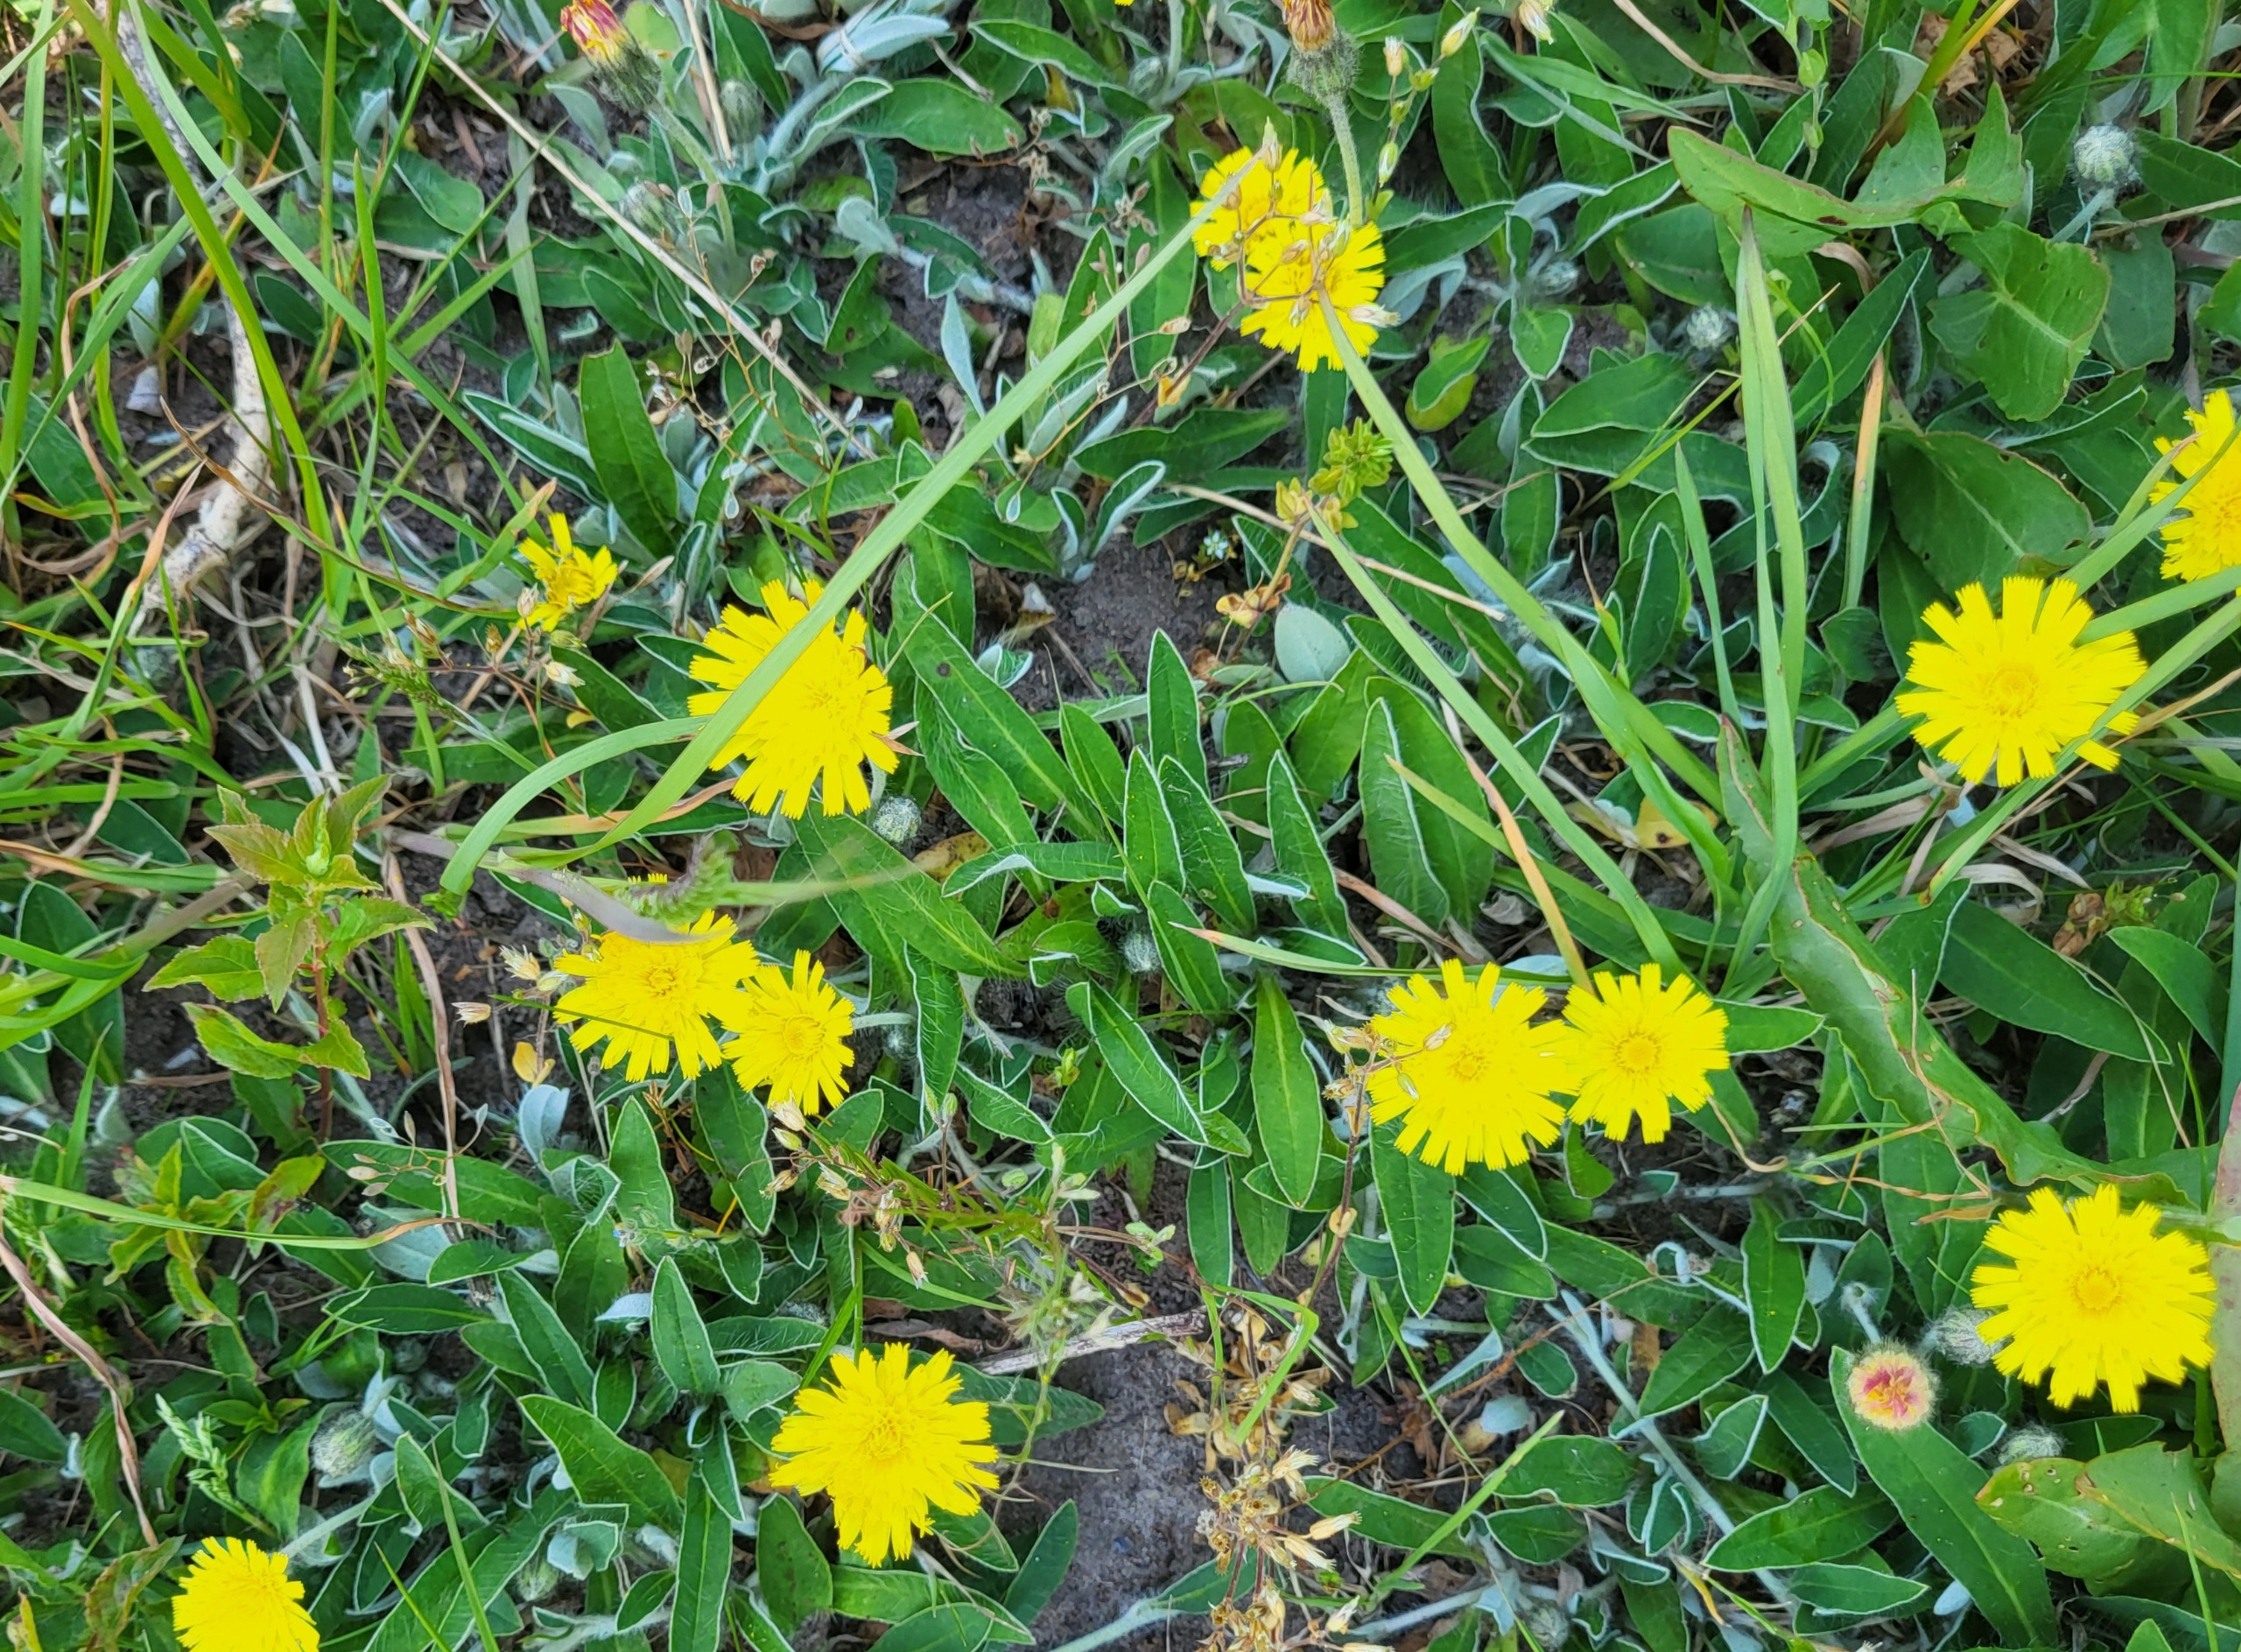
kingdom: Plantae
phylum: Tracheophyta
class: Magnoliopsida
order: Asterales
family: Asteraceae
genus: Pilosella
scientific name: Pilosella officinarum
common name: Håret høgeurt
